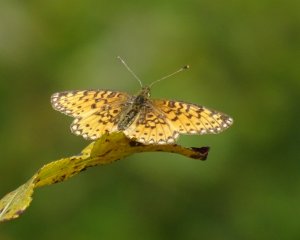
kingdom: Animalia
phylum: Arthropoda
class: Insecta
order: Lepidoptera
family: Nymphalidae
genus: Boloria
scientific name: Boloria selene
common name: Silver-bordered Fritillary
